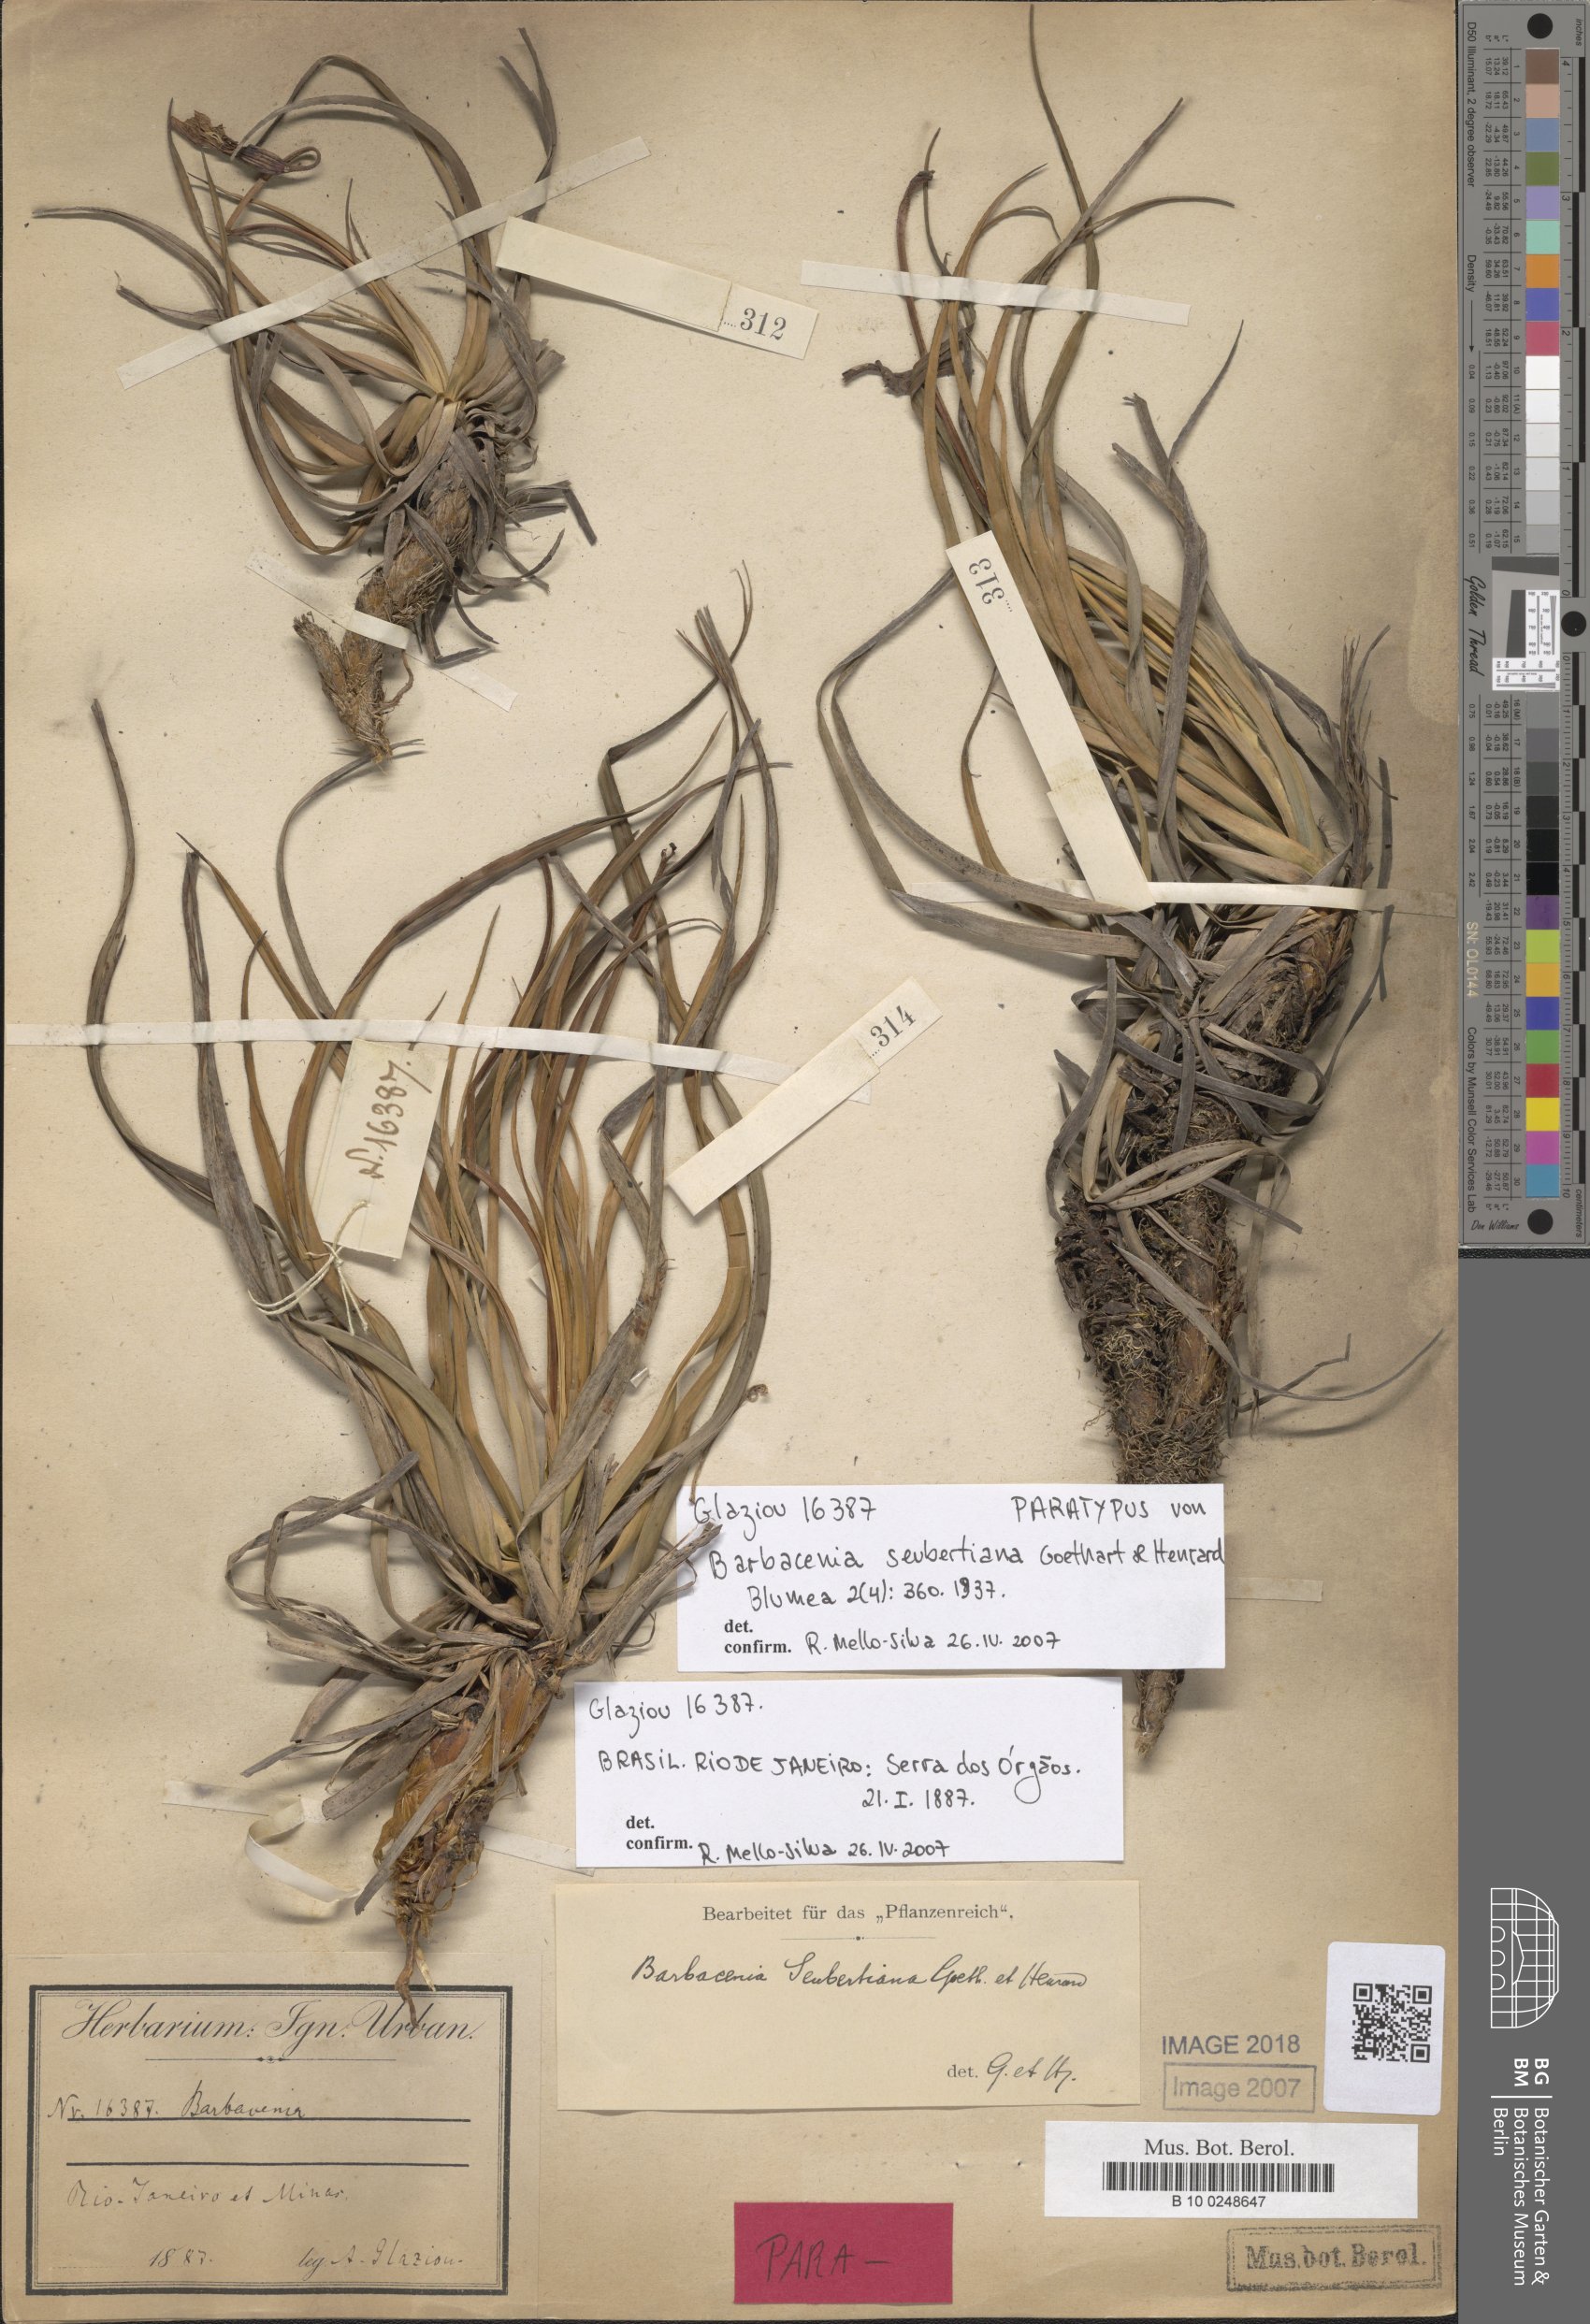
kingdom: Plantae
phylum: Tracheophyta
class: Liliopsida
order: Pandanales
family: Velloziaceae
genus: Barbacenia
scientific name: Barbacenia seubertiana
